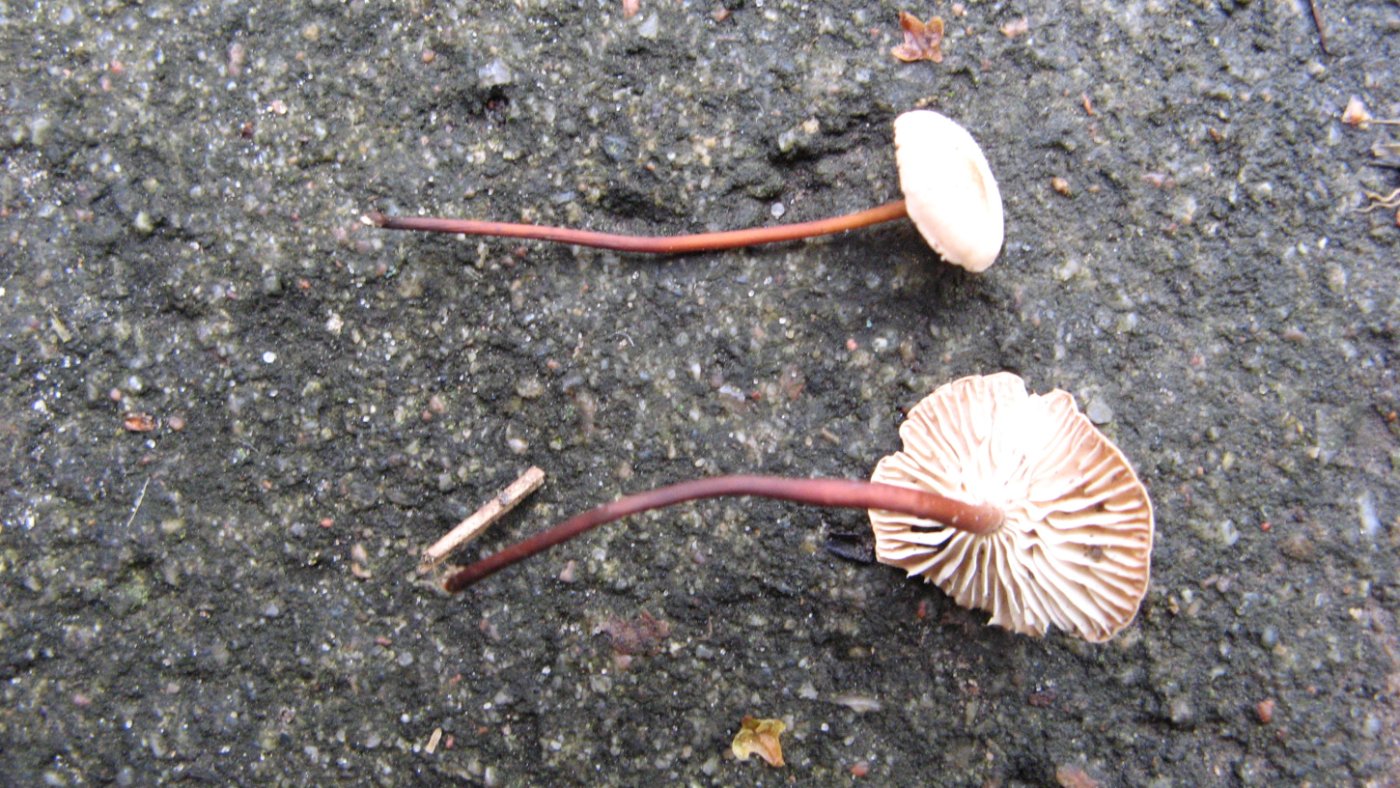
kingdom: Fungi
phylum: Basidiomycota
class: Agaricomycetes
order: Agaricales
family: Omphalotaceae
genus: Mycetinis
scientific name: Mycetinis scorodonius
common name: lille løghat
